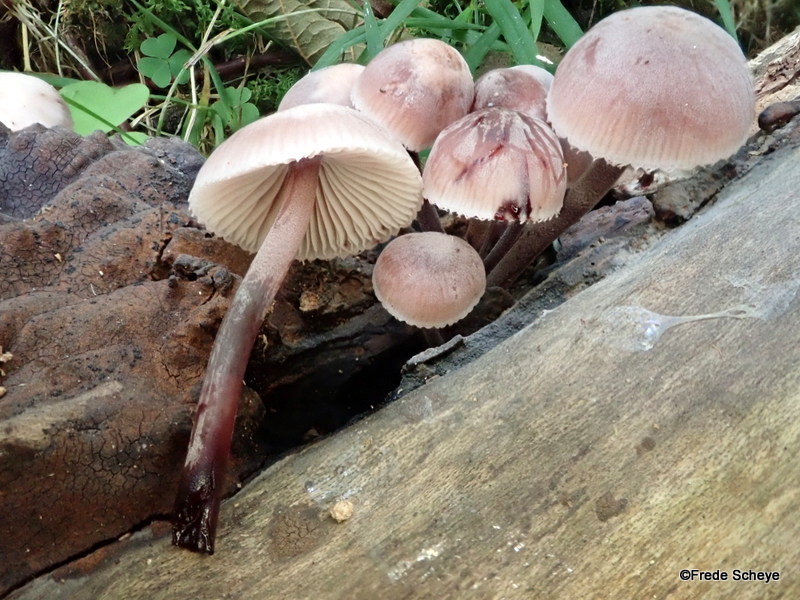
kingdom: Fungi
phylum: Basidiomycota
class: Agaricomycetes
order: Agaricales
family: Mycenaceae
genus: Mycena
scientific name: Mycena haematopus
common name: blødende huesvamp
